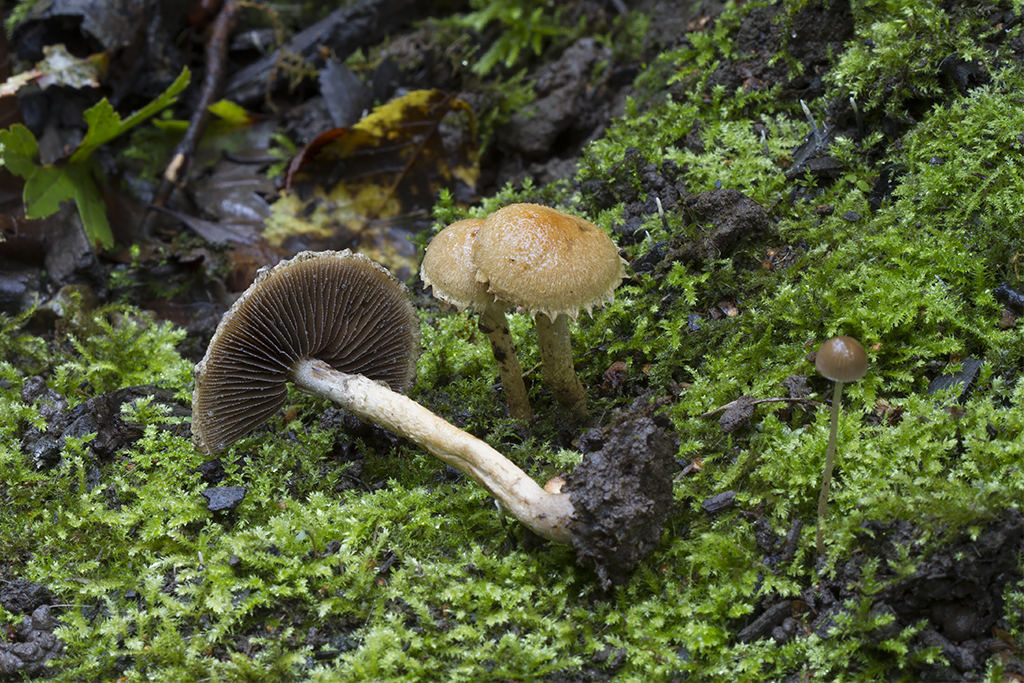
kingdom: Fungi
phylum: Basidiomycota
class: Agaricomycetes
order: Agaricales
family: Psathyrellaceae
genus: Lacrymaria
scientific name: Lacrymaria lacrymabunda
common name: grædende mørkhat
